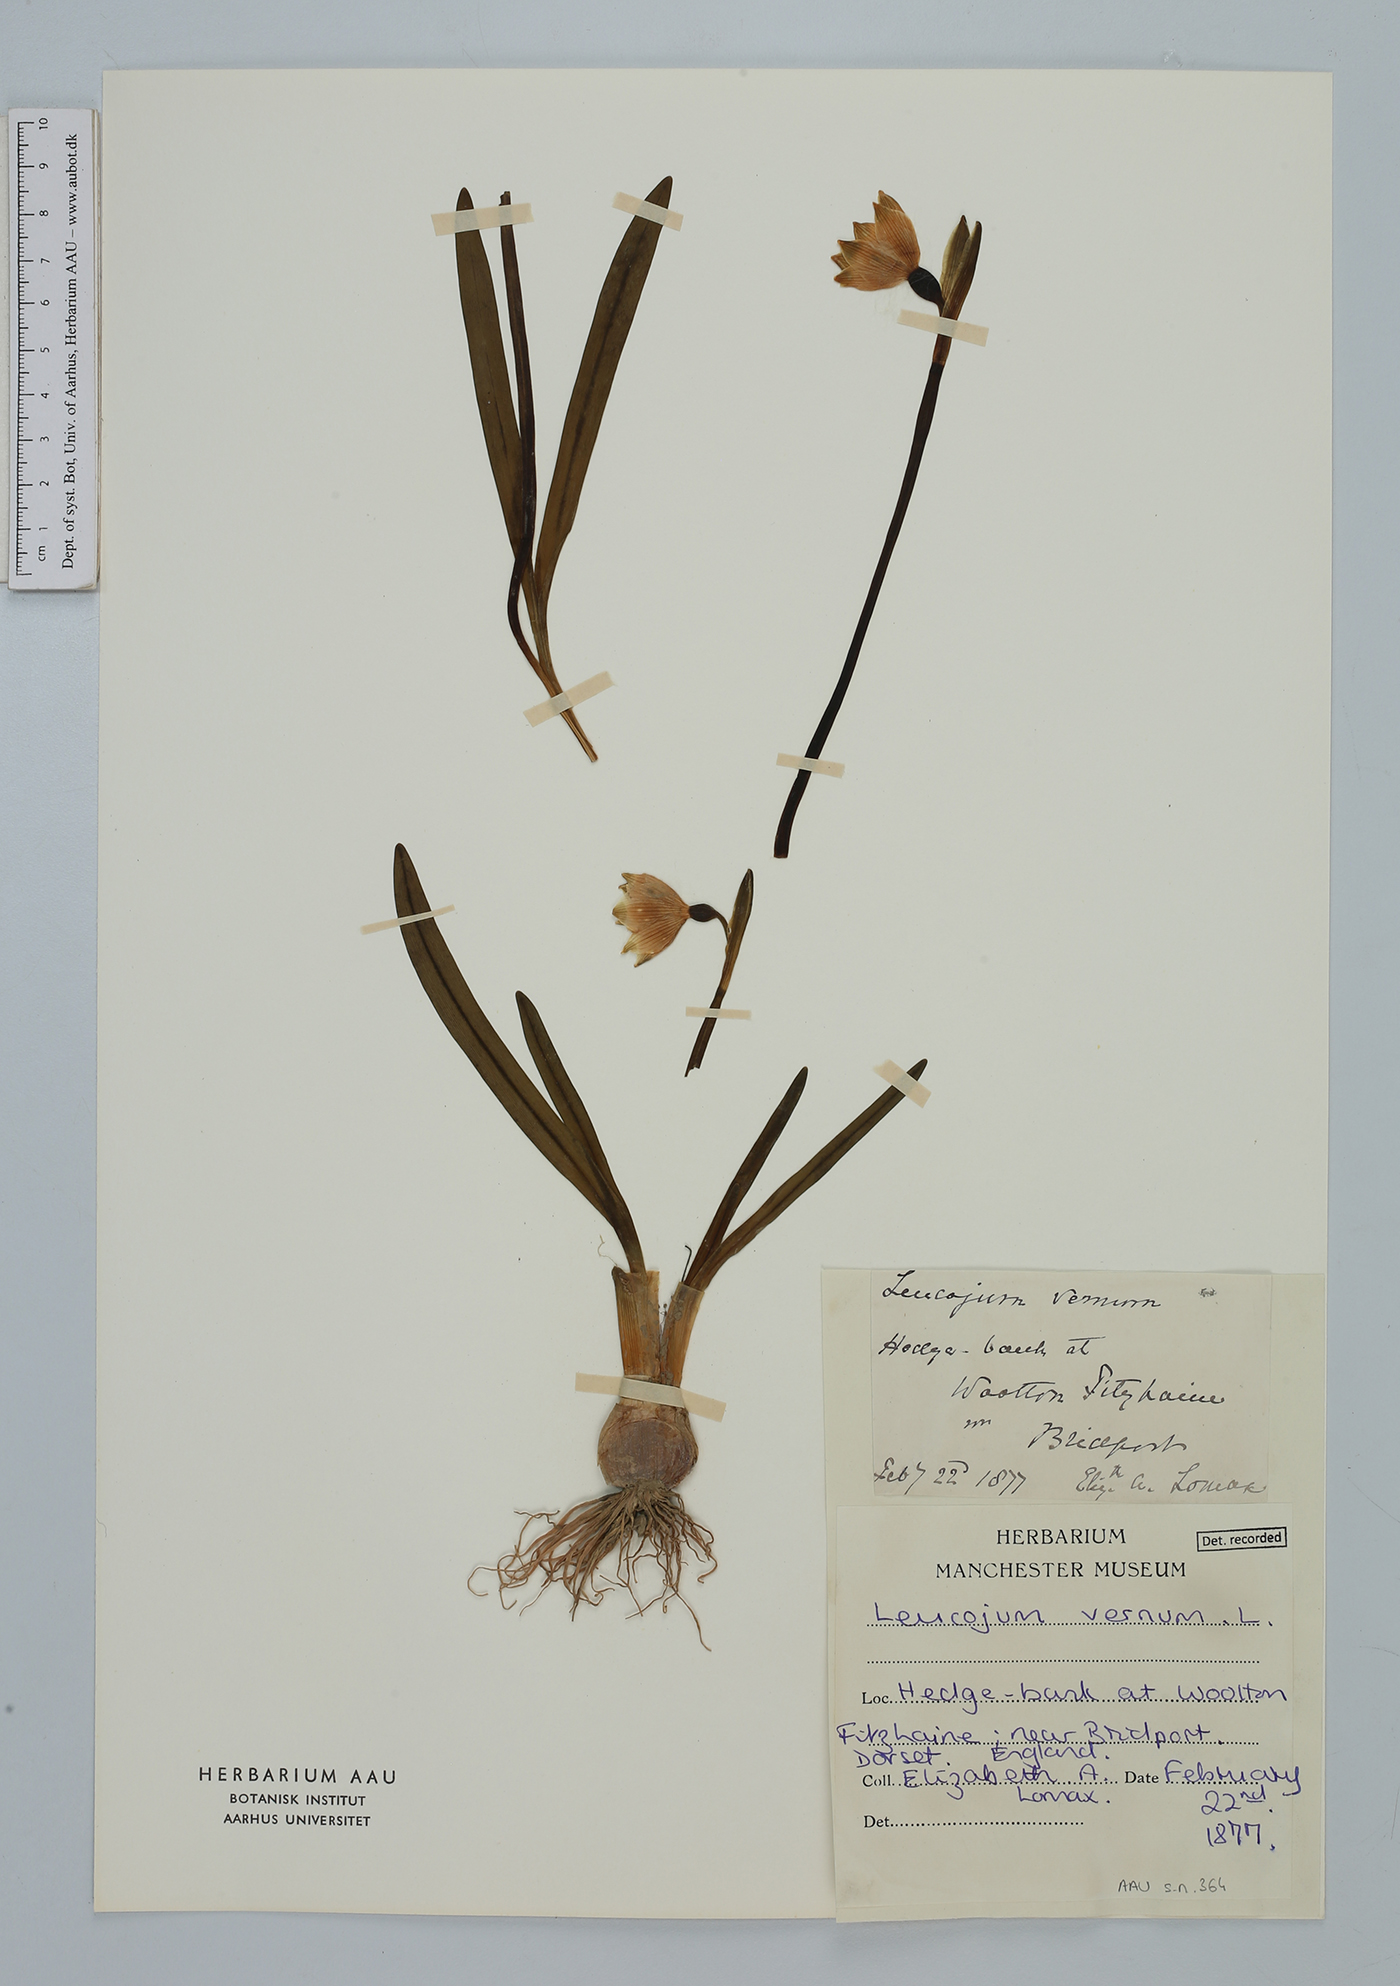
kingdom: Plantae
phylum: Tracheophyta
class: Liliopsida
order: Asparagales
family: Amaryllidaceae
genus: Leucojum
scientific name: Leucojum vernum
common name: Spring snowflake
